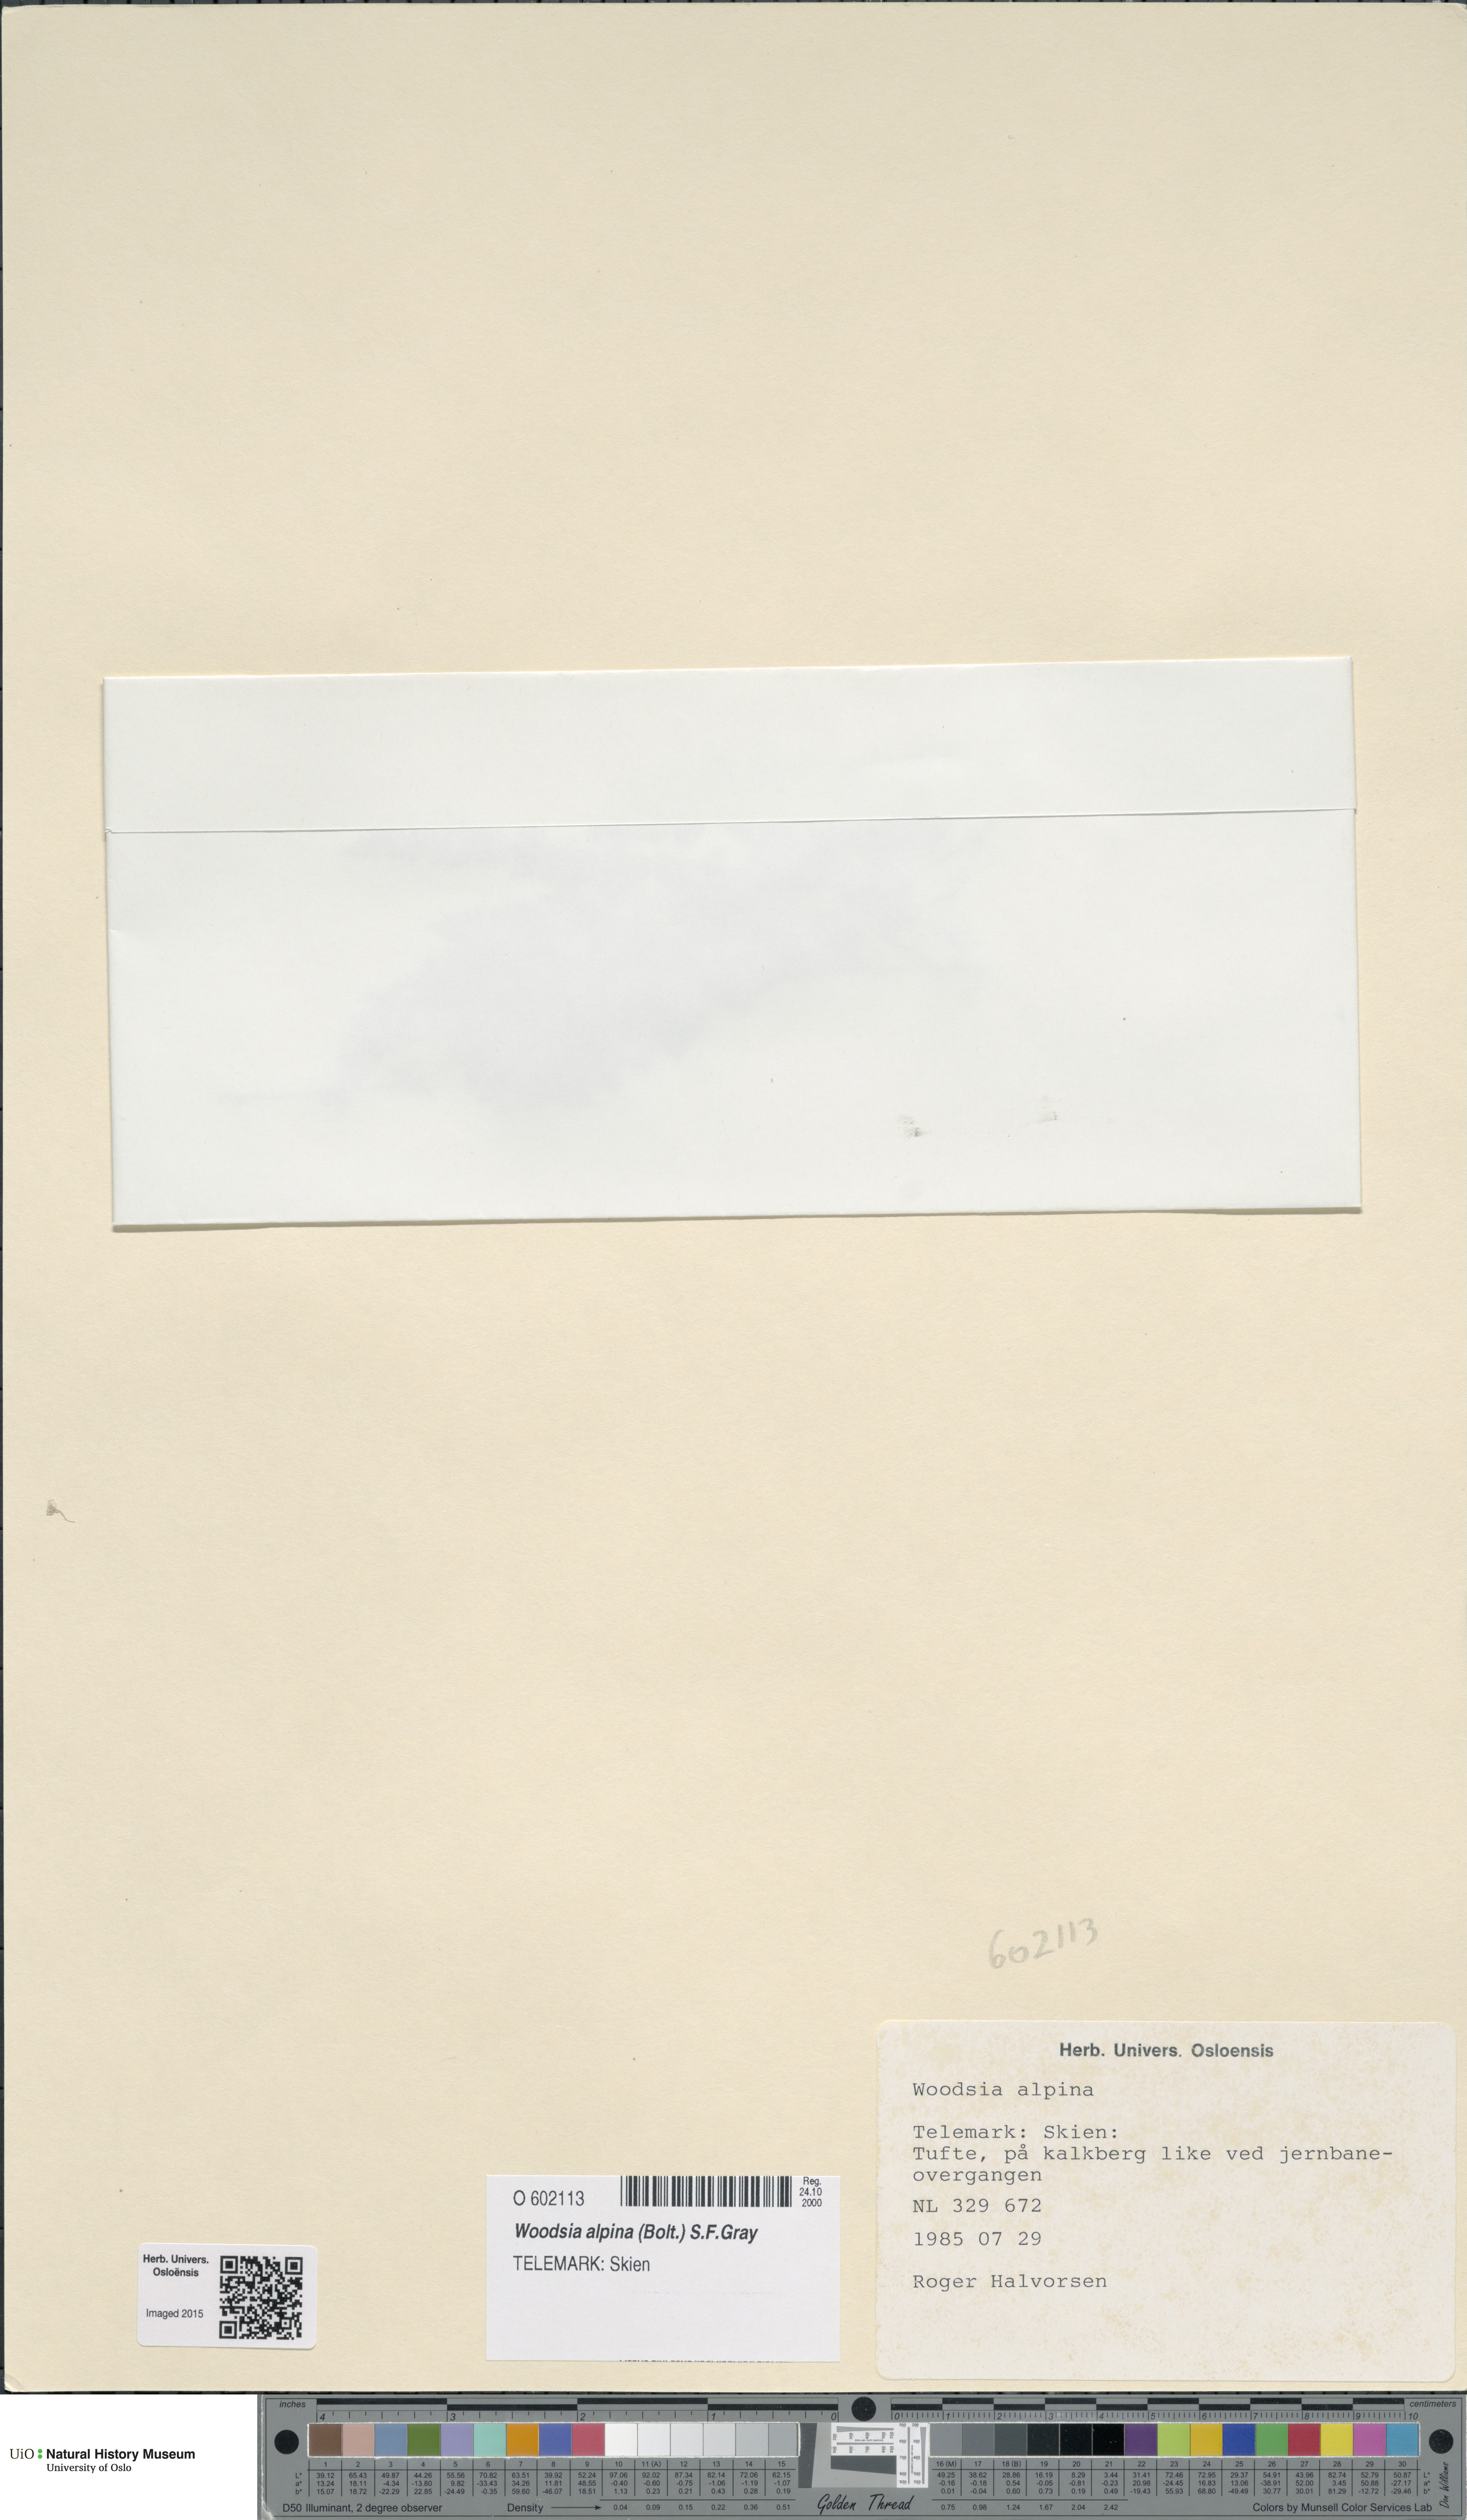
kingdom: Plantae
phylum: Tracheophyta
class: Polypodiopsida
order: Polypodiales
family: Woodsiaceae
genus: Woodsia
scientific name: Woodsia alpina
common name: Alpine woodsia
